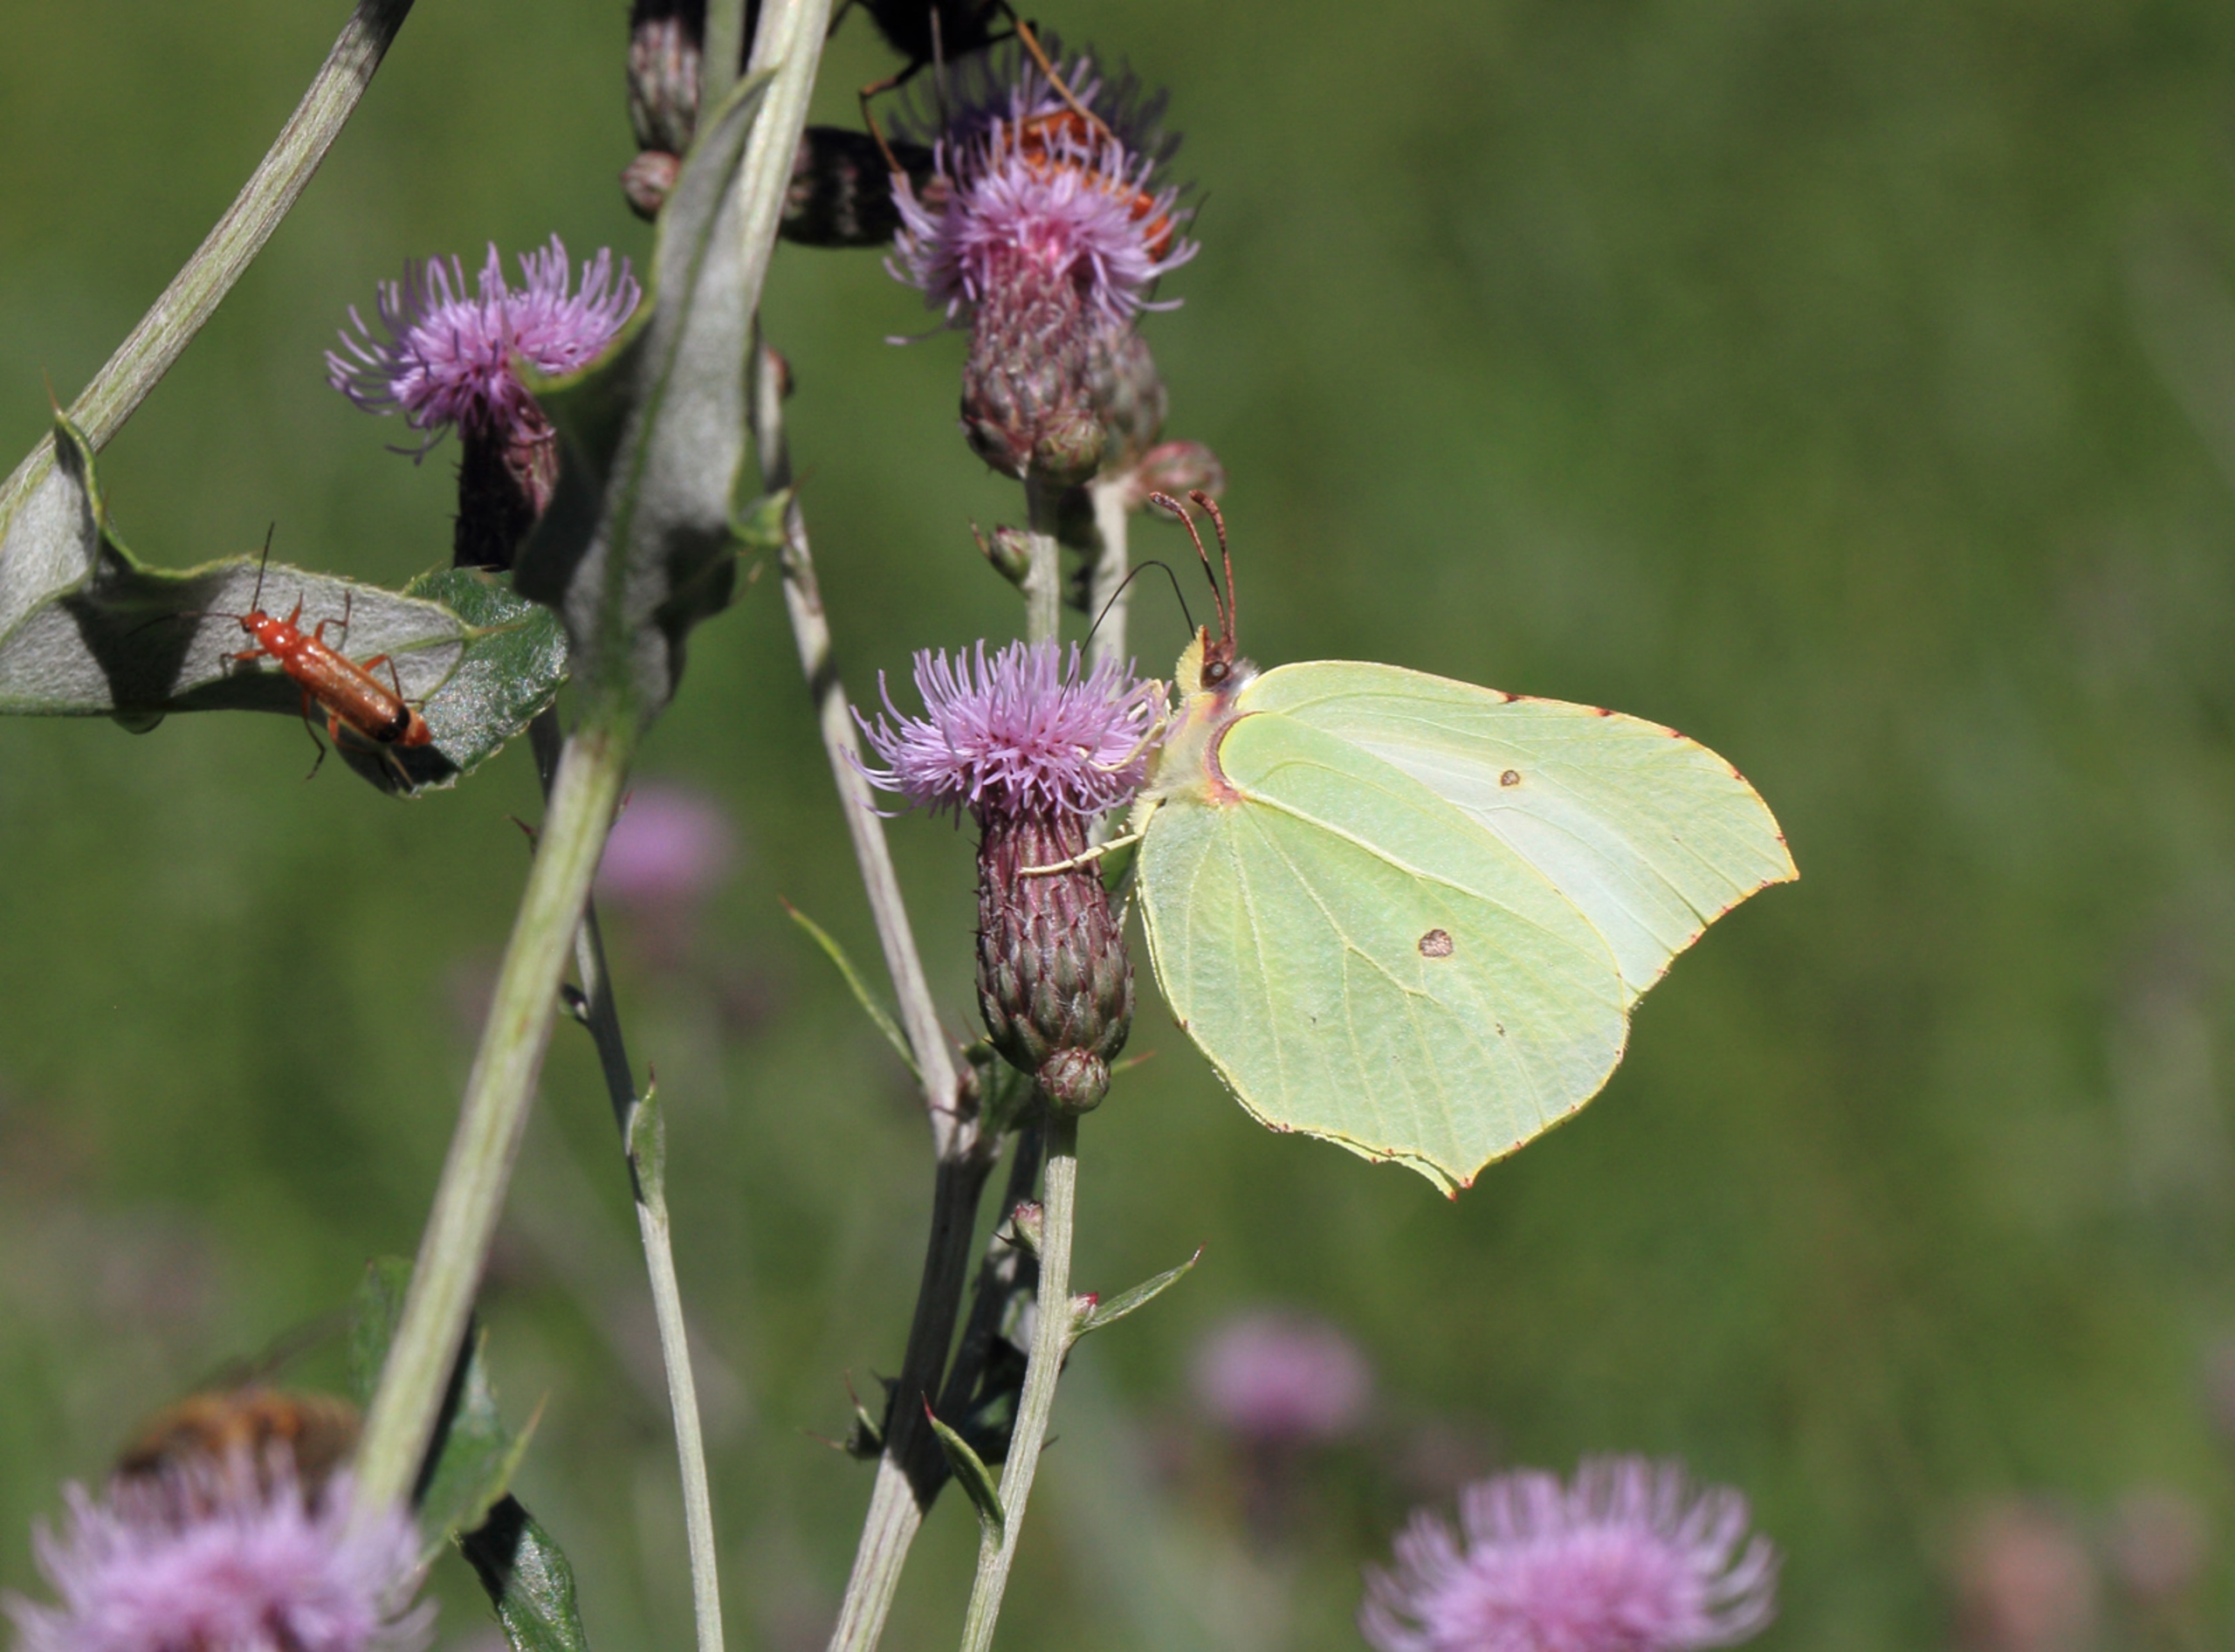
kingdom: Animalia
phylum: Arthropoda
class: Insecta
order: Lepidoptera
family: Pieridae
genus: Gonepteryx
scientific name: Gonepteryx rhamni
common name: Citronsommerfugl
